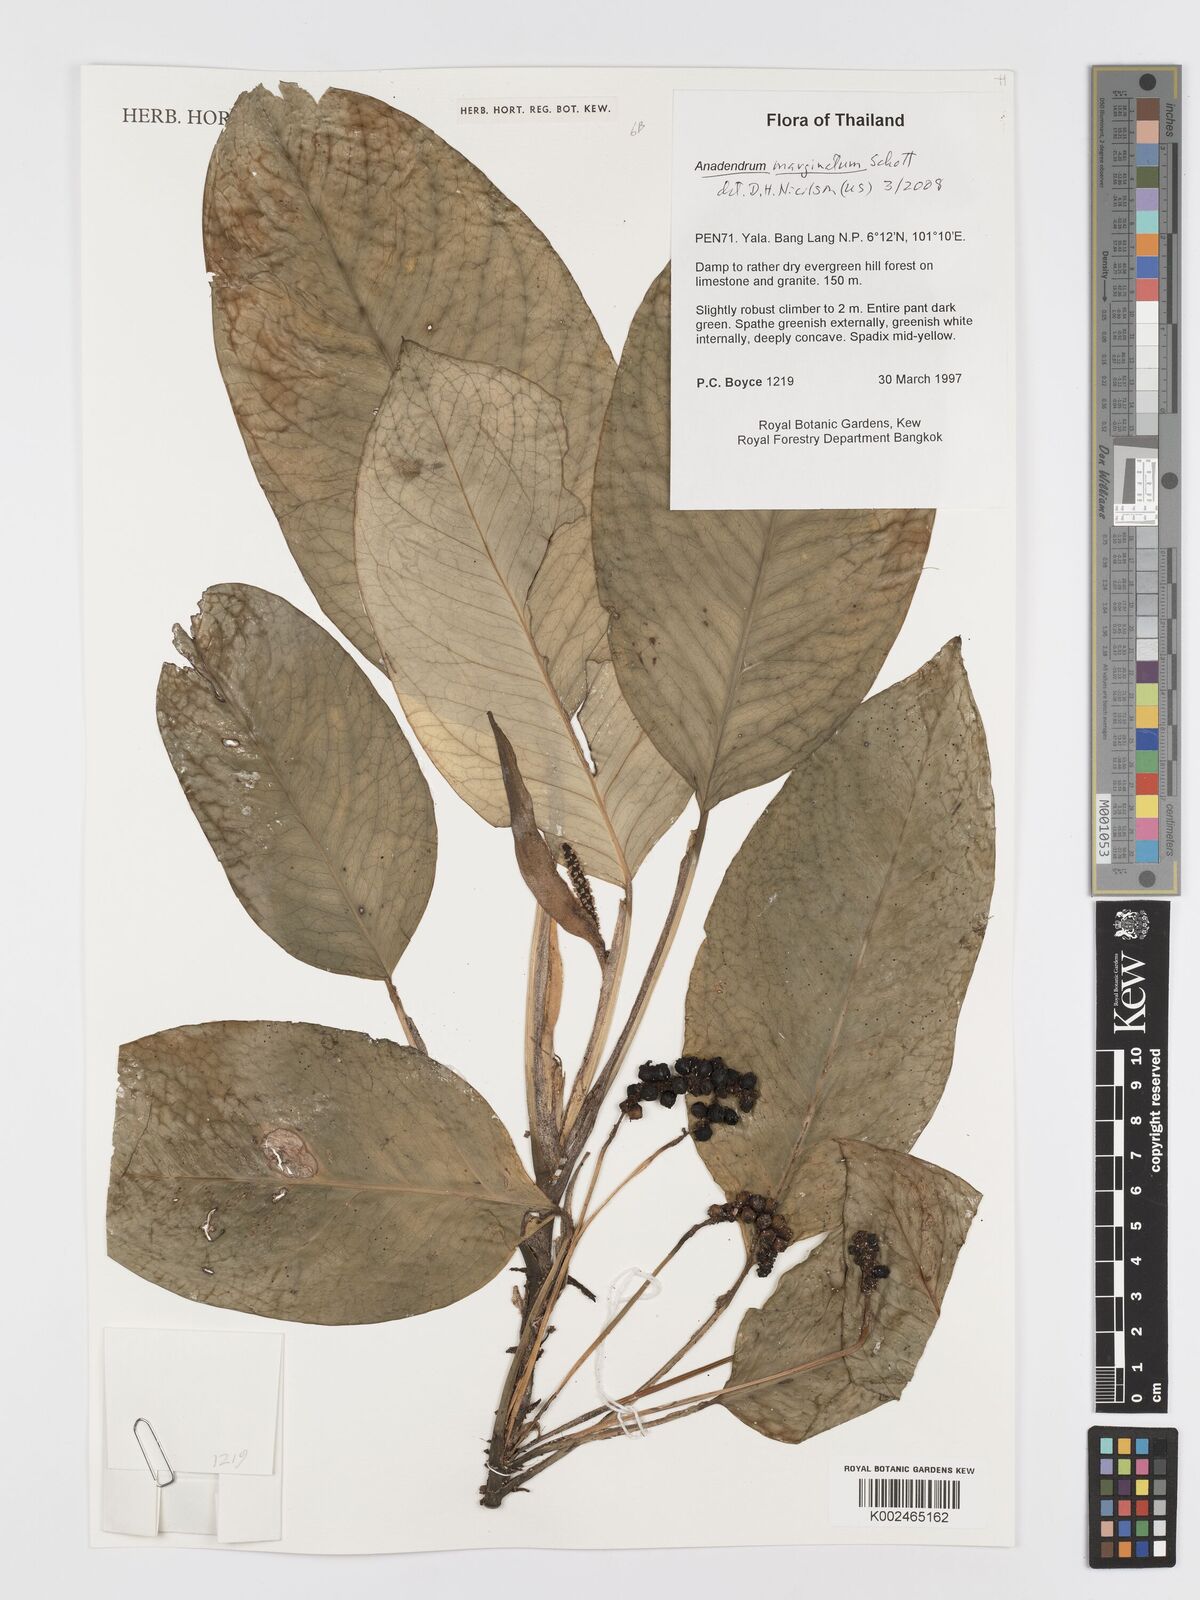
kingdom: Plantae
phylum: Tracheophyta
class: Liliopsida
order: Alismatales
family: Araceae
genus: Anadendrum
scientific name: Anadendrum marginatum
